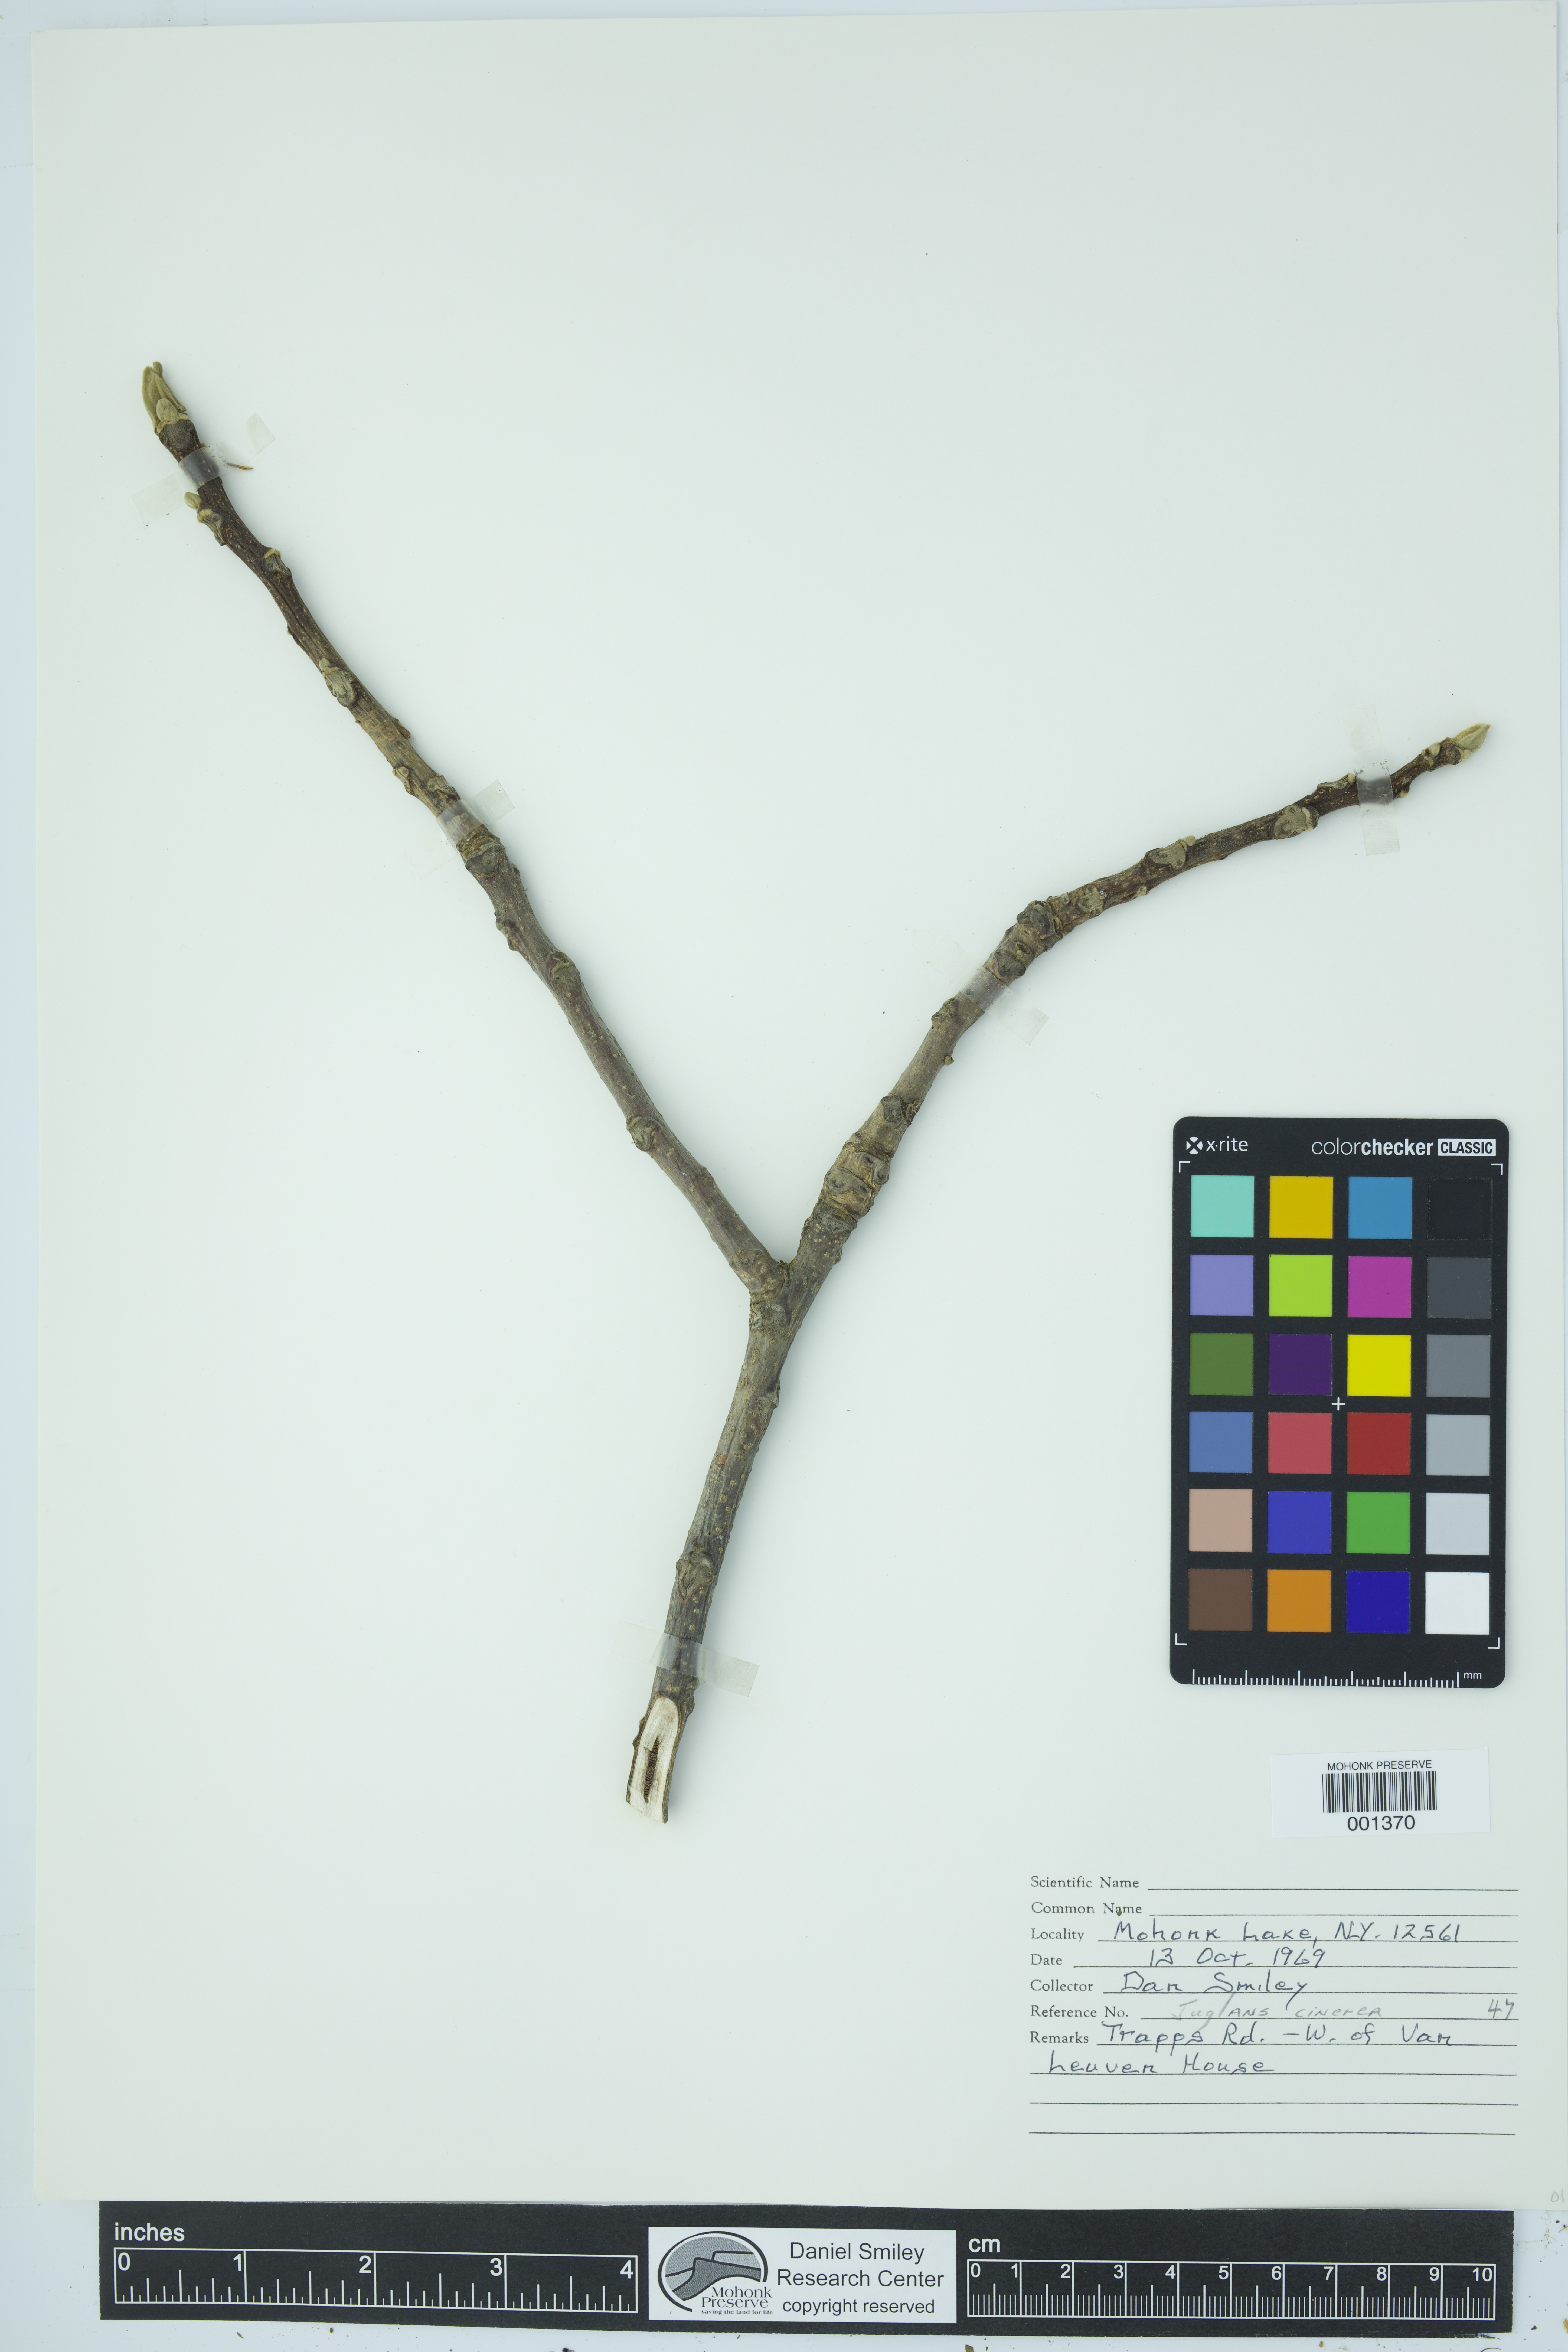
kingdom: Plantae
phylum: Tracheophyta
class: Magnoliopsida
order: Fagales
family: Juglandaceae
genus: Juglans
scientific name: Juglans cinerea
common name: Butternut
